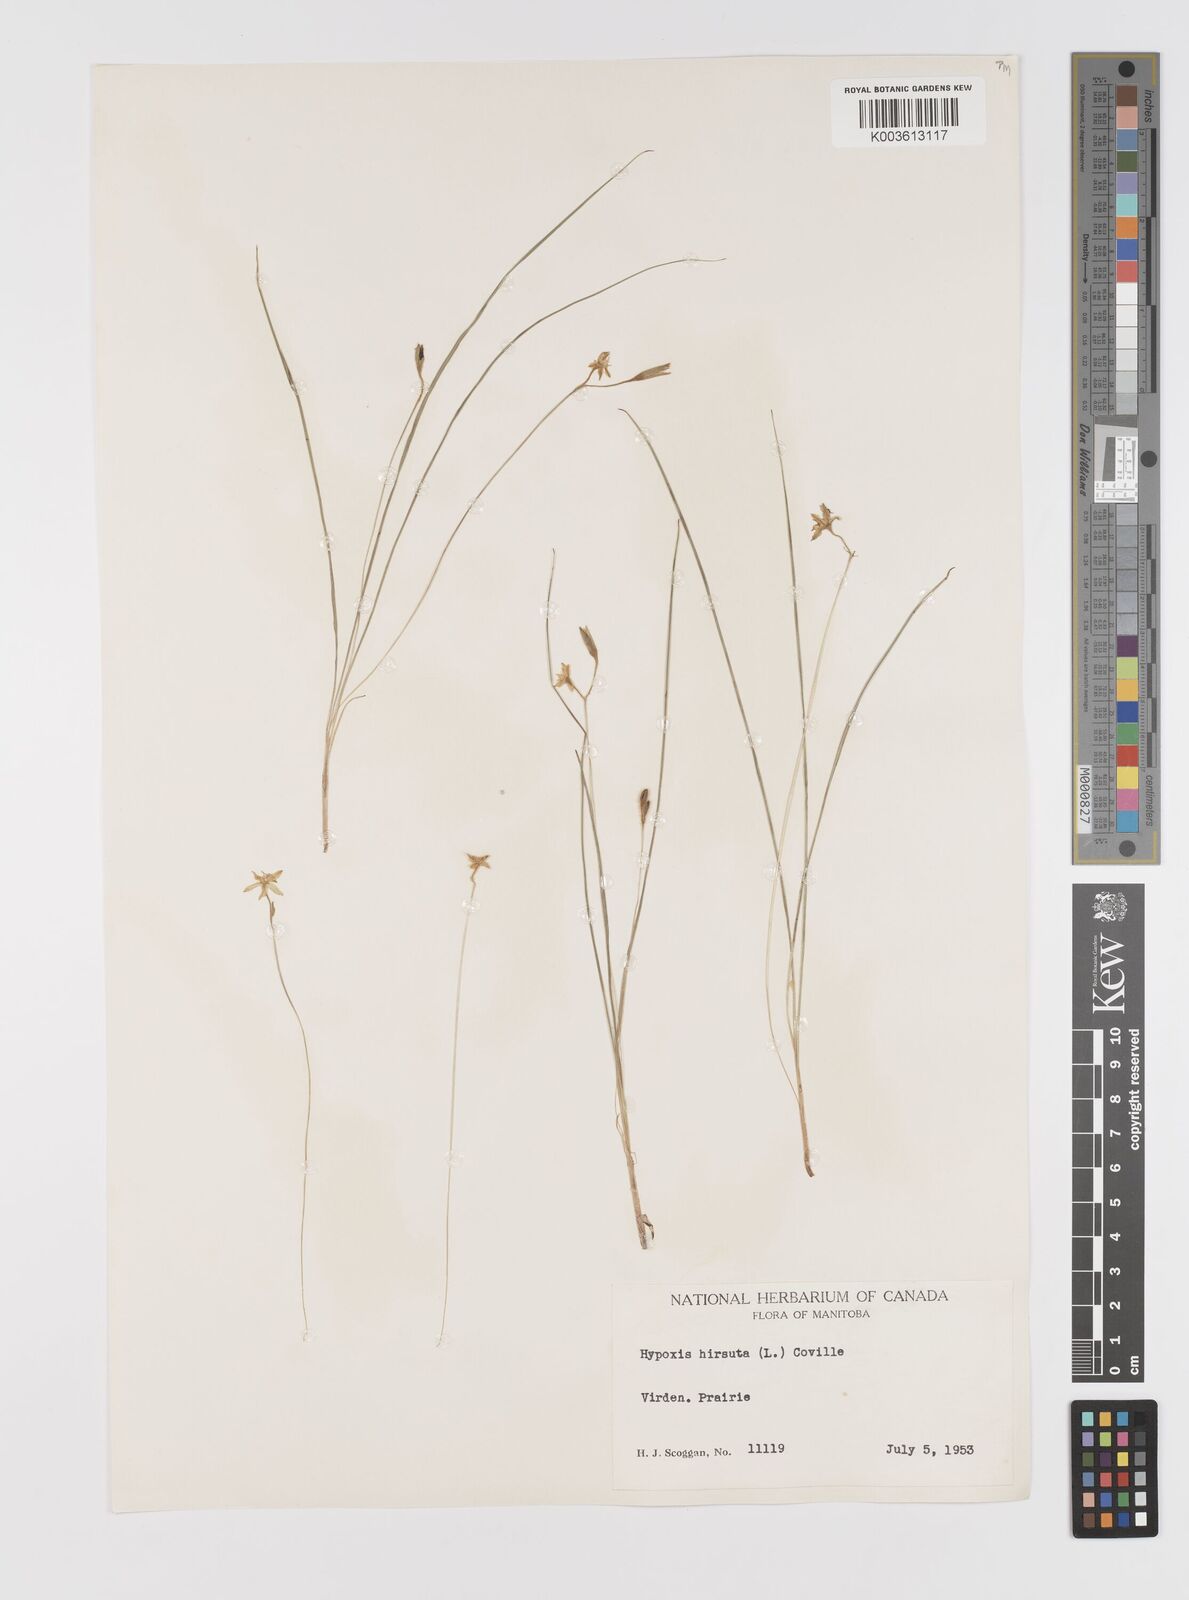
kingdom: Plantae
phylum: Tracheophyta
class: Liliopsida
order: Asparagales
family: Hypoxidaceae
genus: Hypoxis
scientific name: Hypoxis hirsuta
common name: Common goldstar
